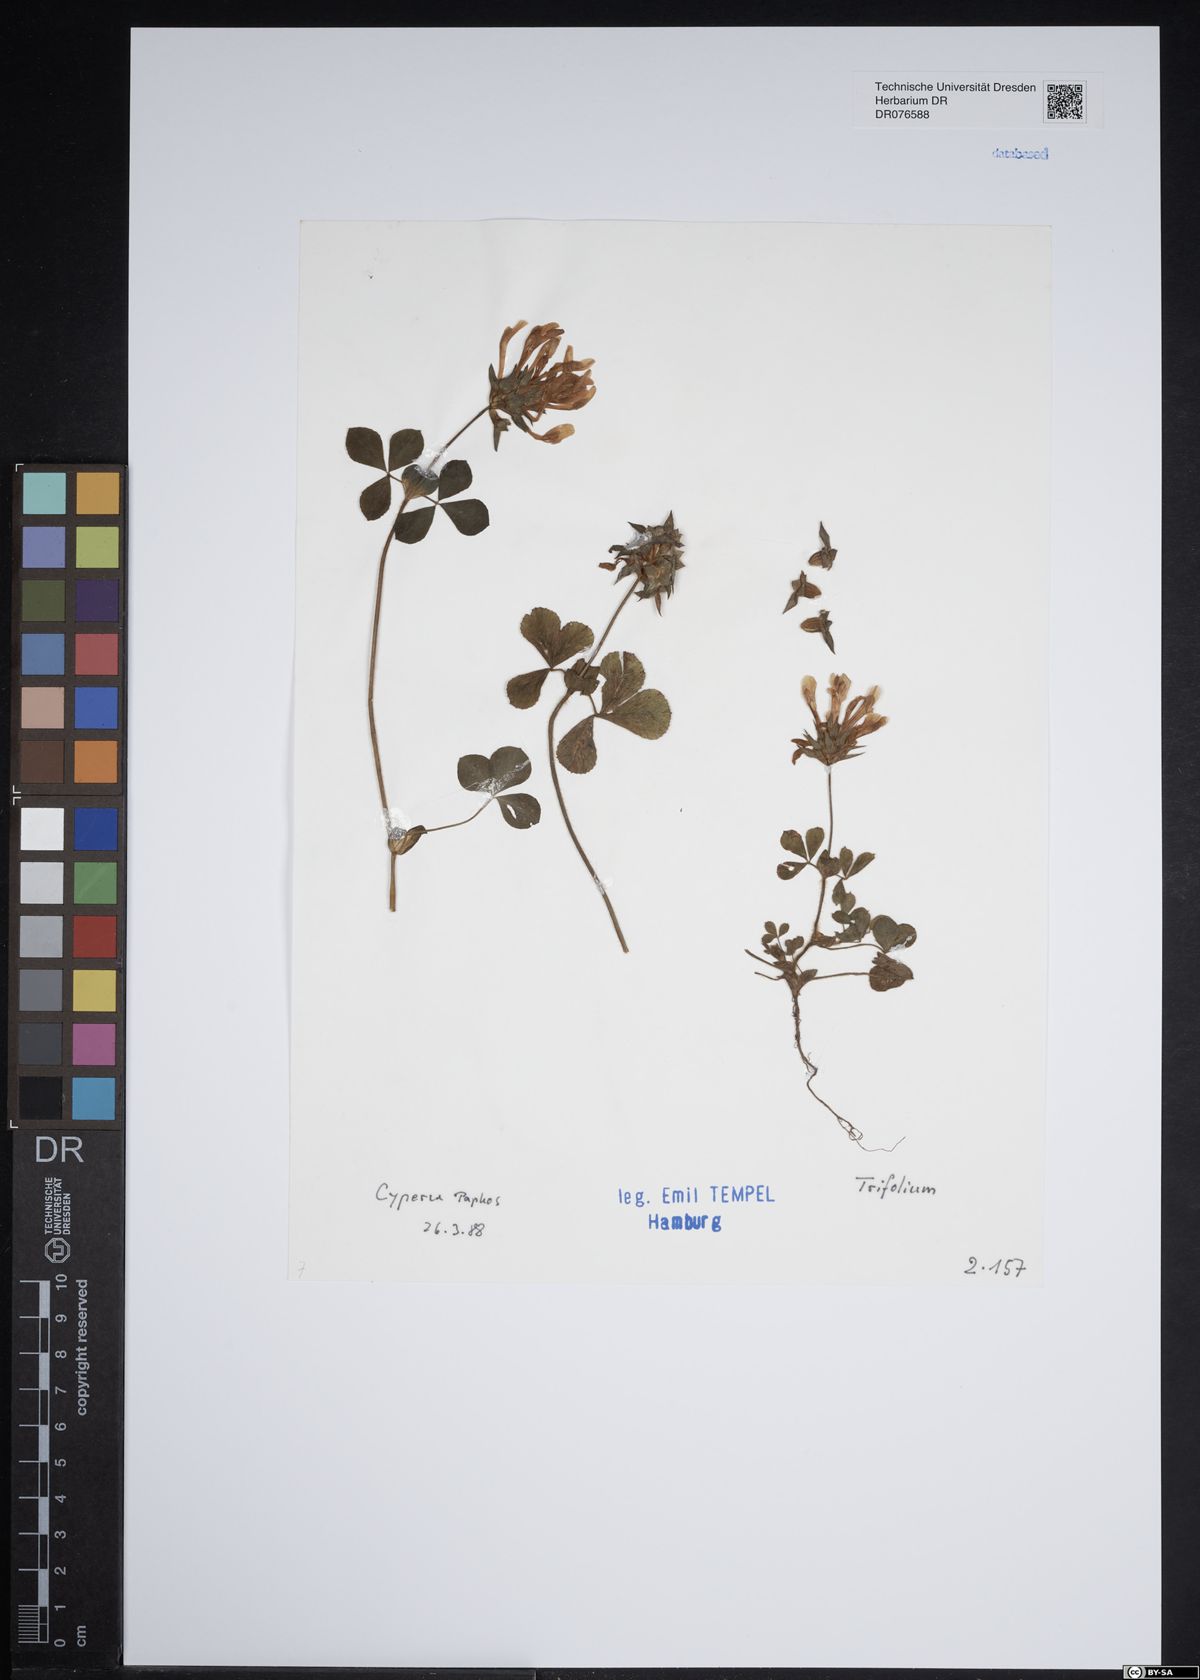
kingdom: Plantae
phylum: Tracheophyta
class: Magnoliopsida
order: Fabales
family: Fabaceae
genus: Trifolium
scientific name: Trifolium
